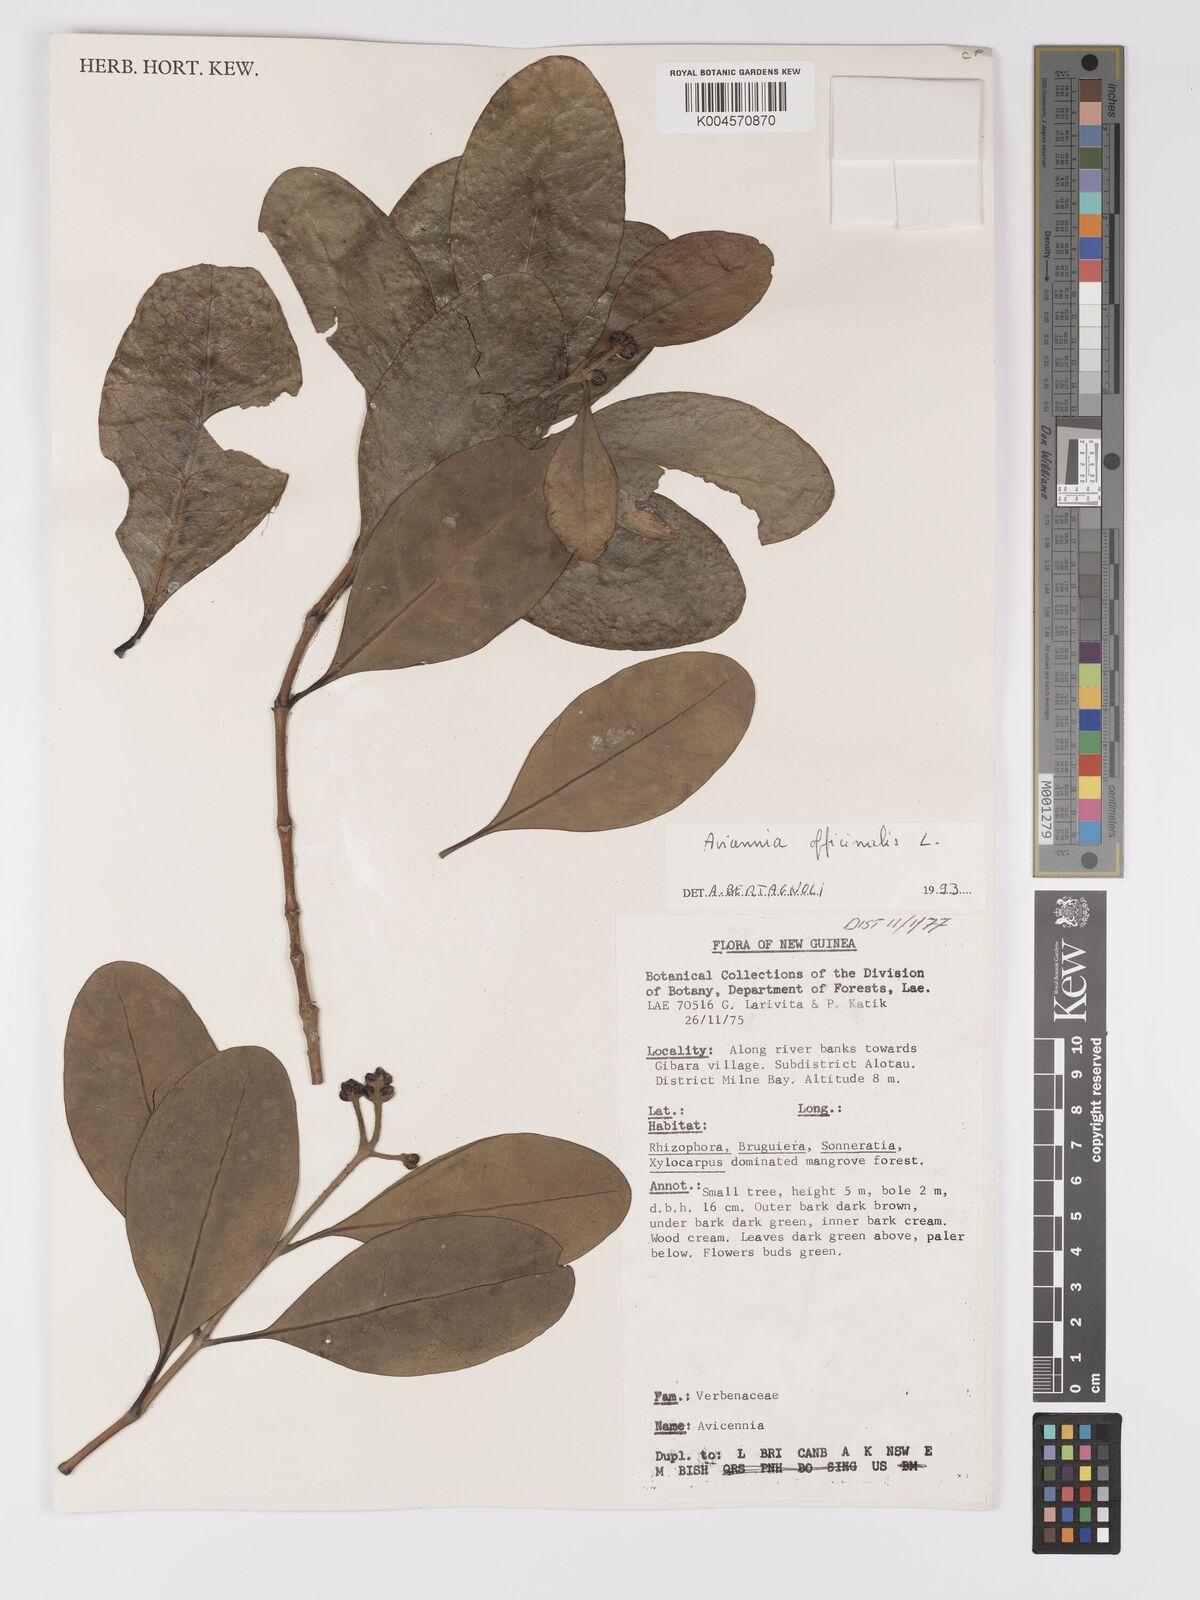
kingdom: Plantae
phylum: Tracheophyta
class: Magnoliopsida
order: Lamiales
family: Acanthaceae
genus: Avicennia
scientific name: Avicennia officinalis
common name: Baen
